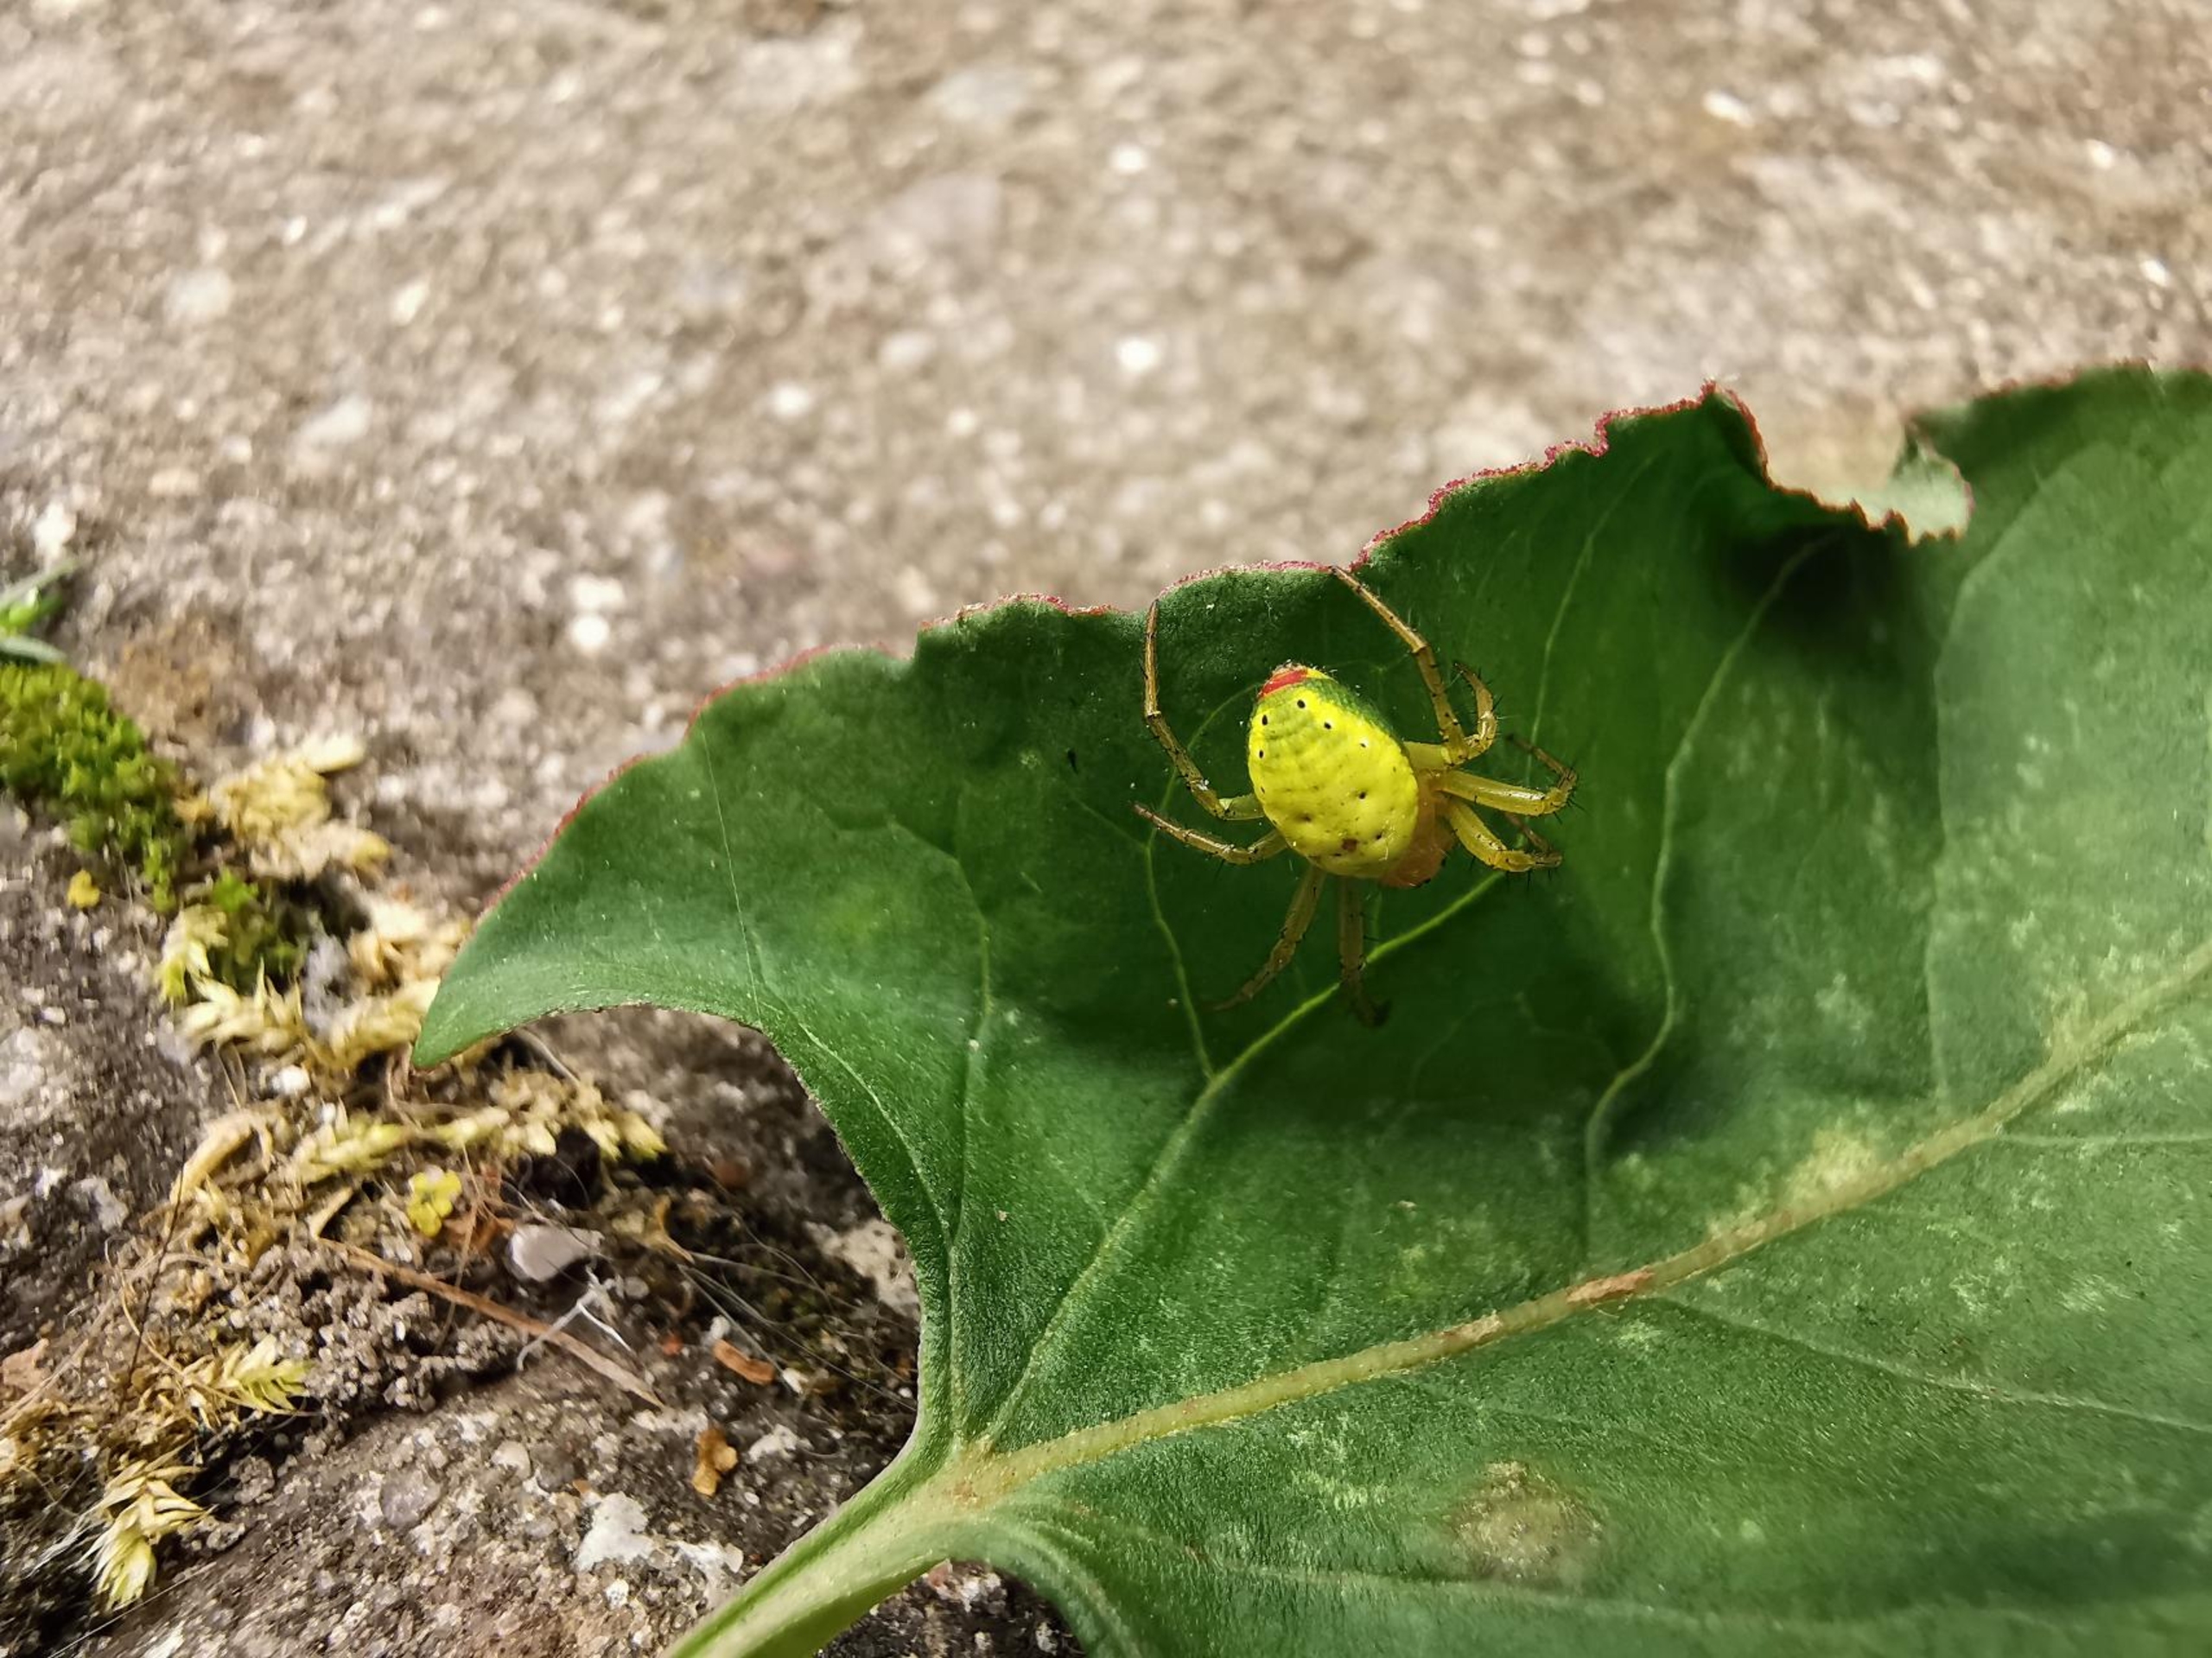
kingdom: Animalia
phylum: Arthropoda
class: Arachnida
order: Araneae
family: Araneidae
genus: Araniella
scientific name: Araniella
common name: Agurkeedderkopslægten
